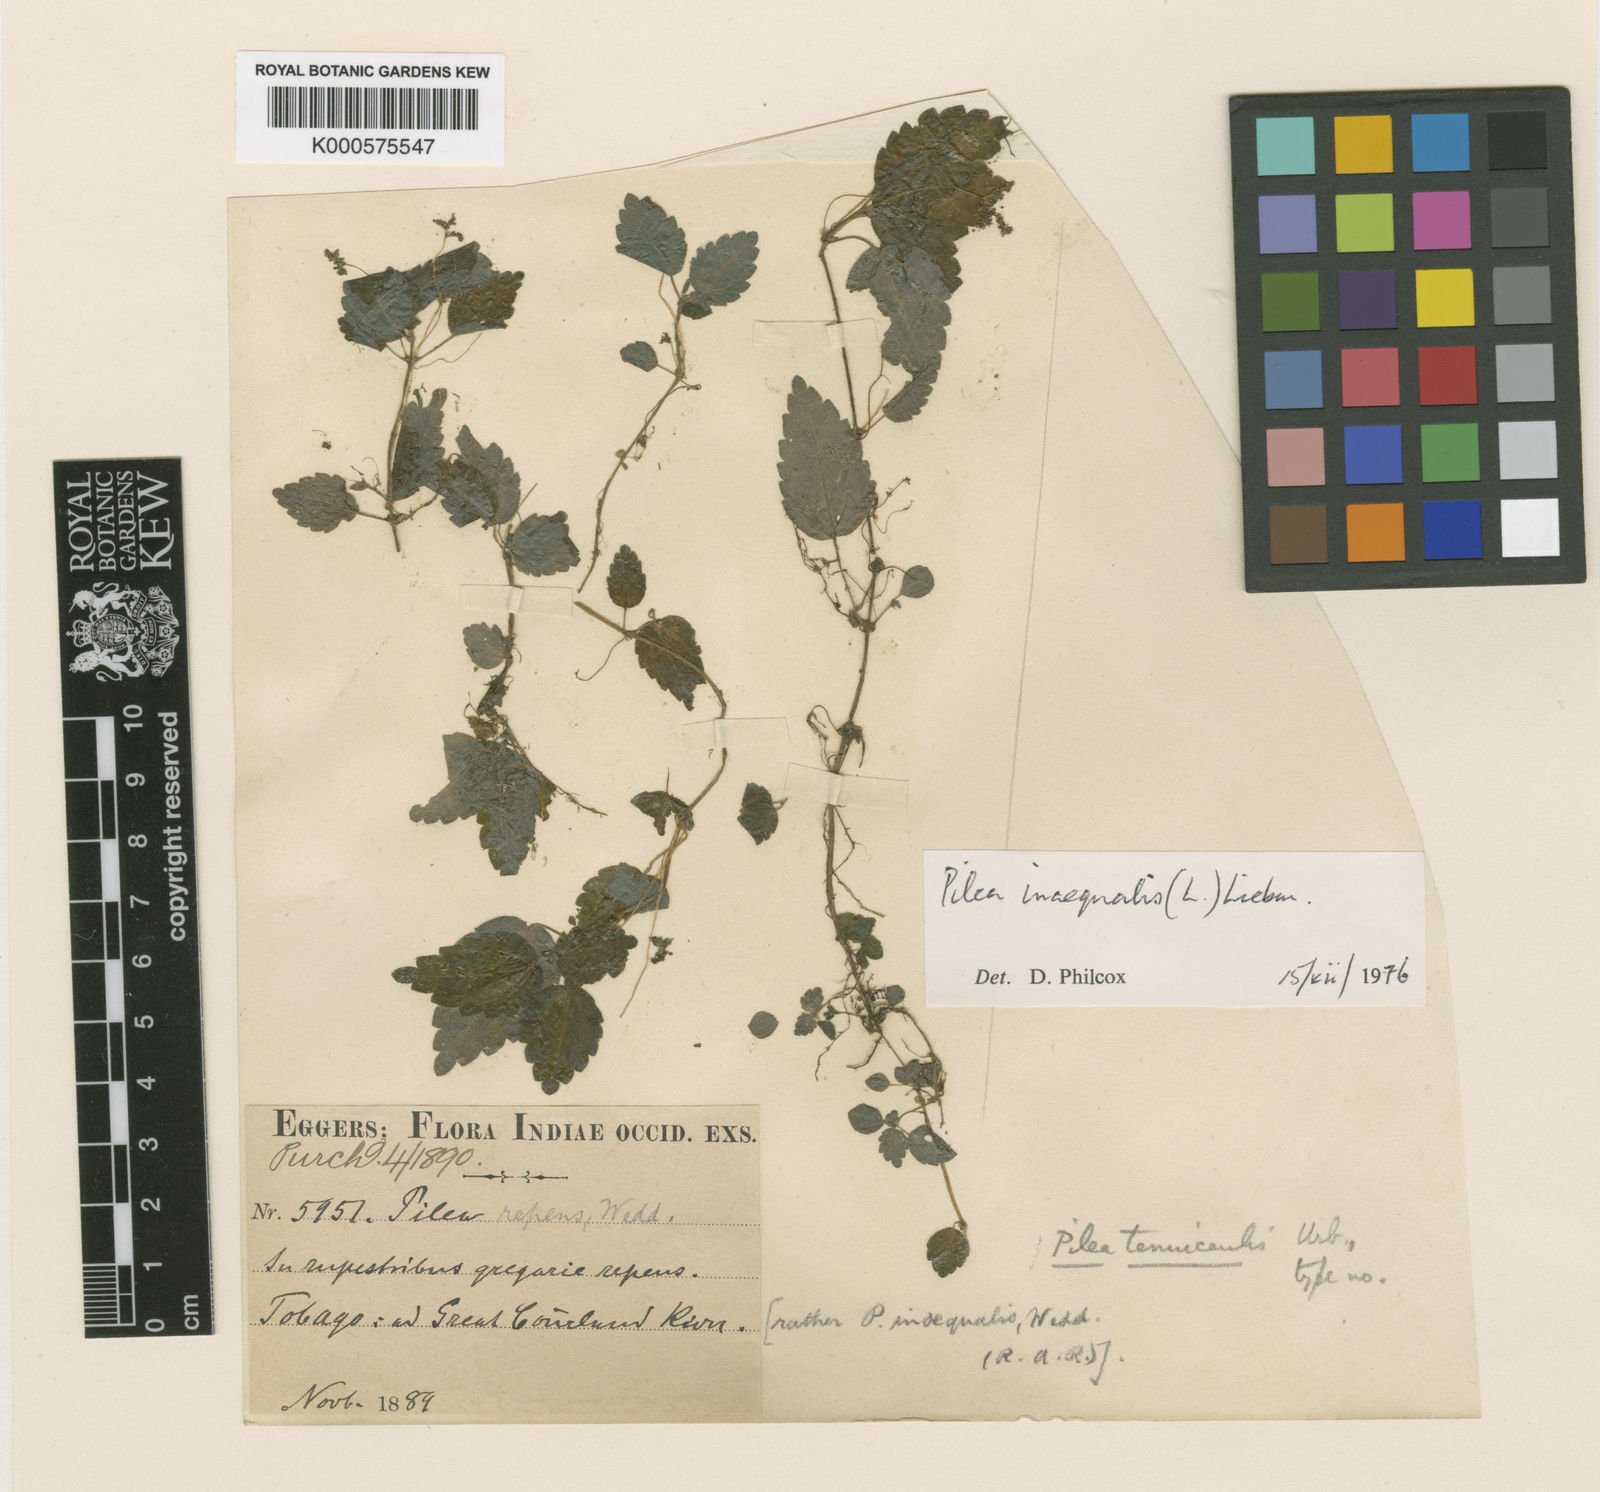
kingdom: Plantae
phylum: Tracheophyta
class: Magnoliopsida
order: Rosales
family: Urticaceae
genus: Pilea
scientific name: Pilea inaequalis
